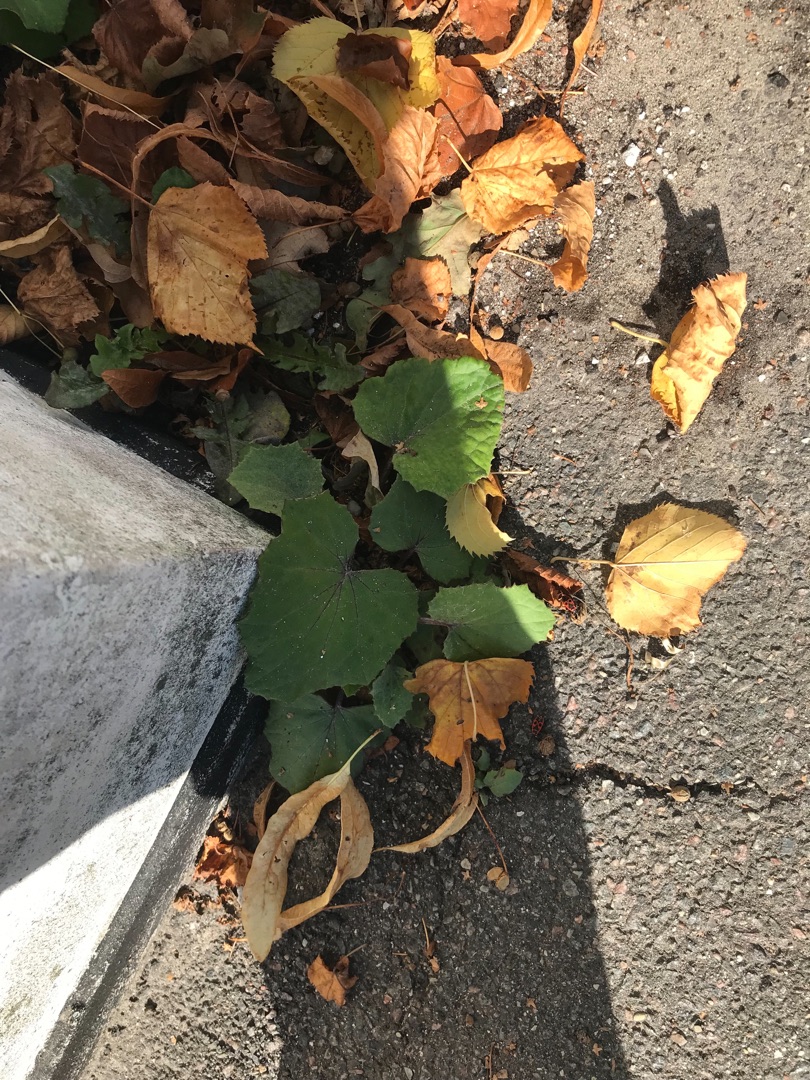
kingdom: Plantae
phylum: Tracheophyta
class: Magnoliopsida
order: Asterales
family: Asteraceae
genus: Tussilago
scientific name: Tussilago farfara
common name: Følfod
